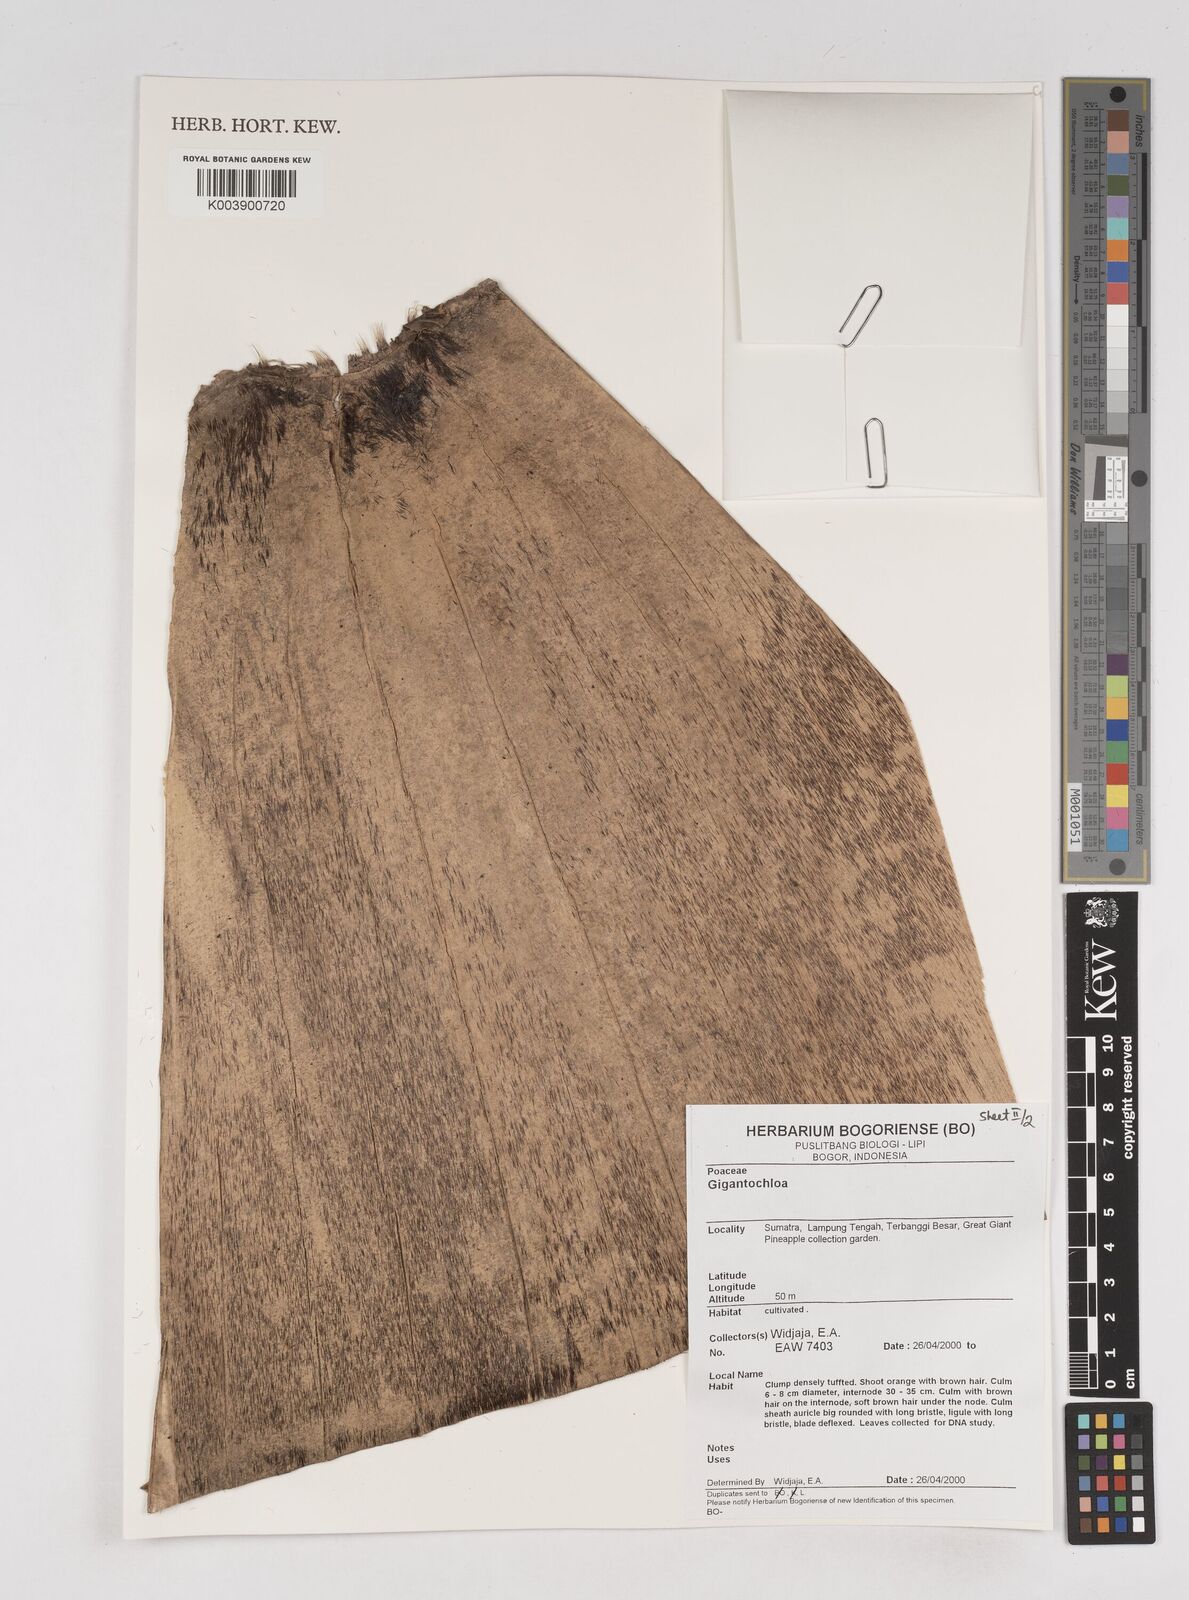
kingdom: Plantae
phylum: Tracheophyta
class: Liliopsida
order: Poales
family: Poaceae
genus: Gigantochloa
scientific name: Gigantochloa
